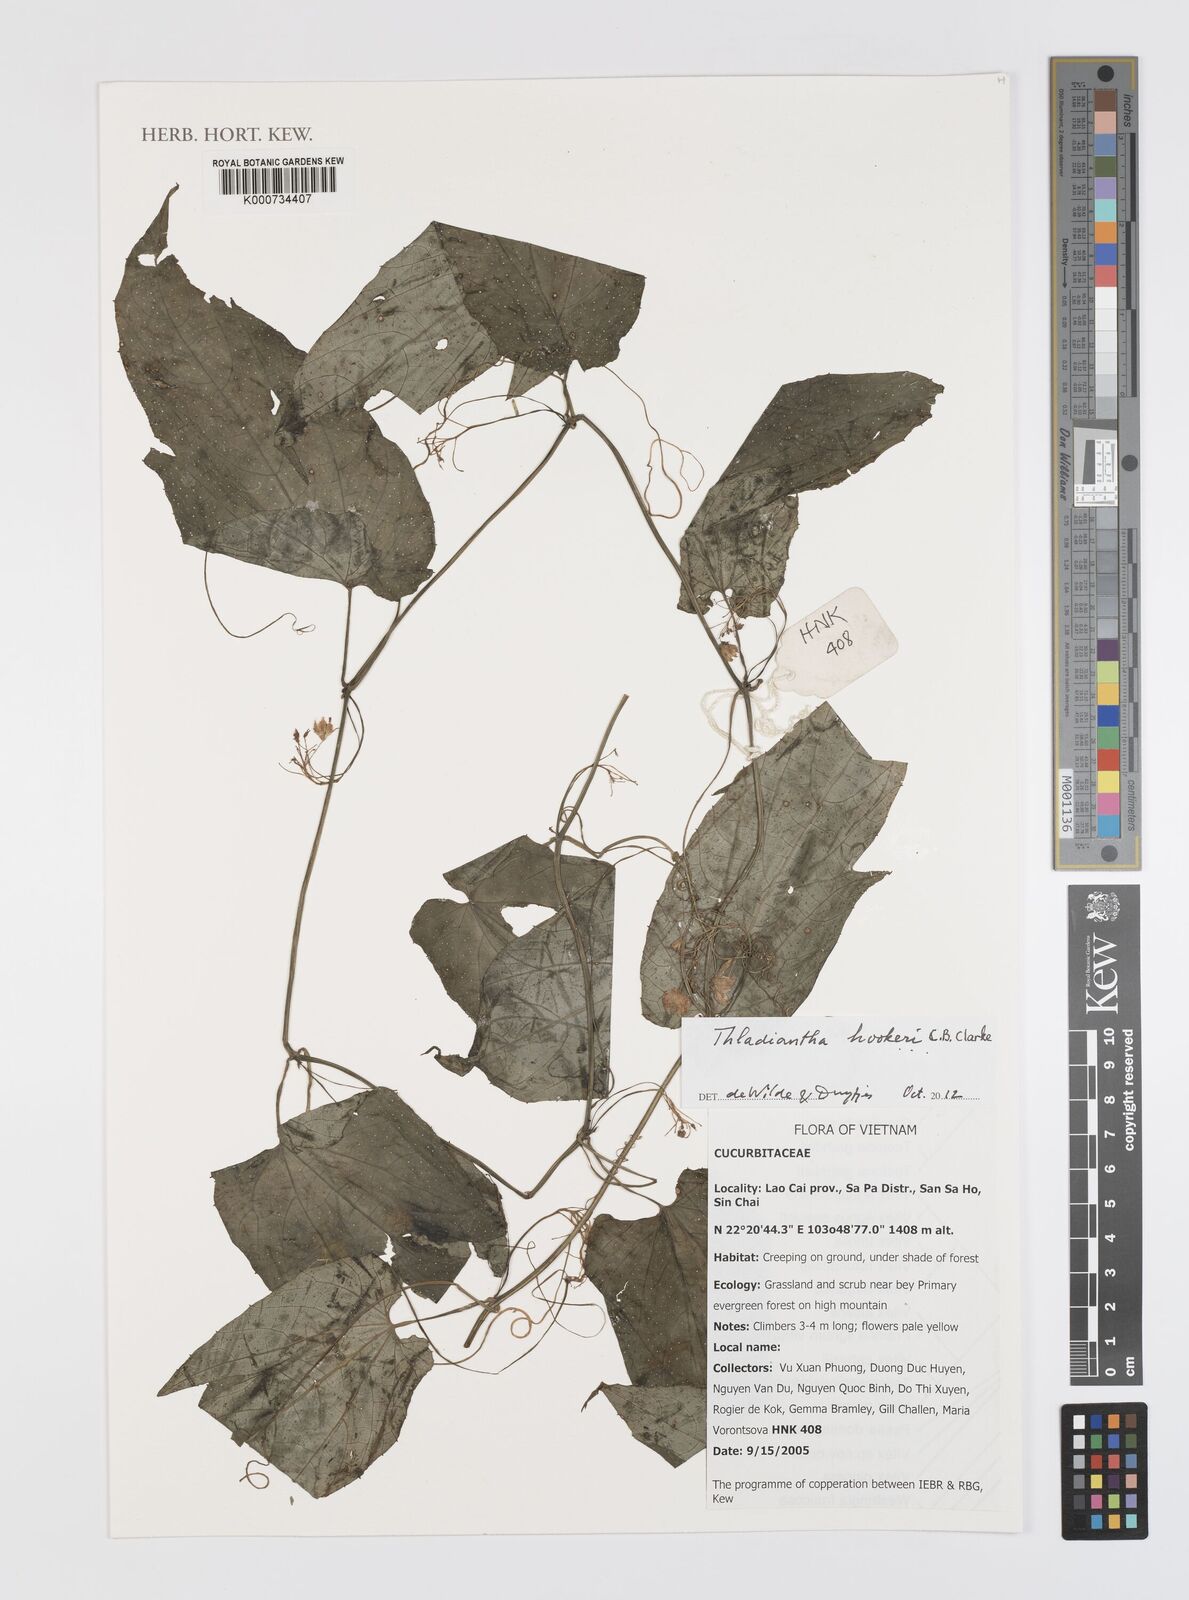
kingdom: Plantae
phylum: Tracheophyta
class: Magnoliopsida
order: Cucurbitales
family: Cucurbitaceae
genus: Thladiantha
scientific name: Thladiantha hookeri
